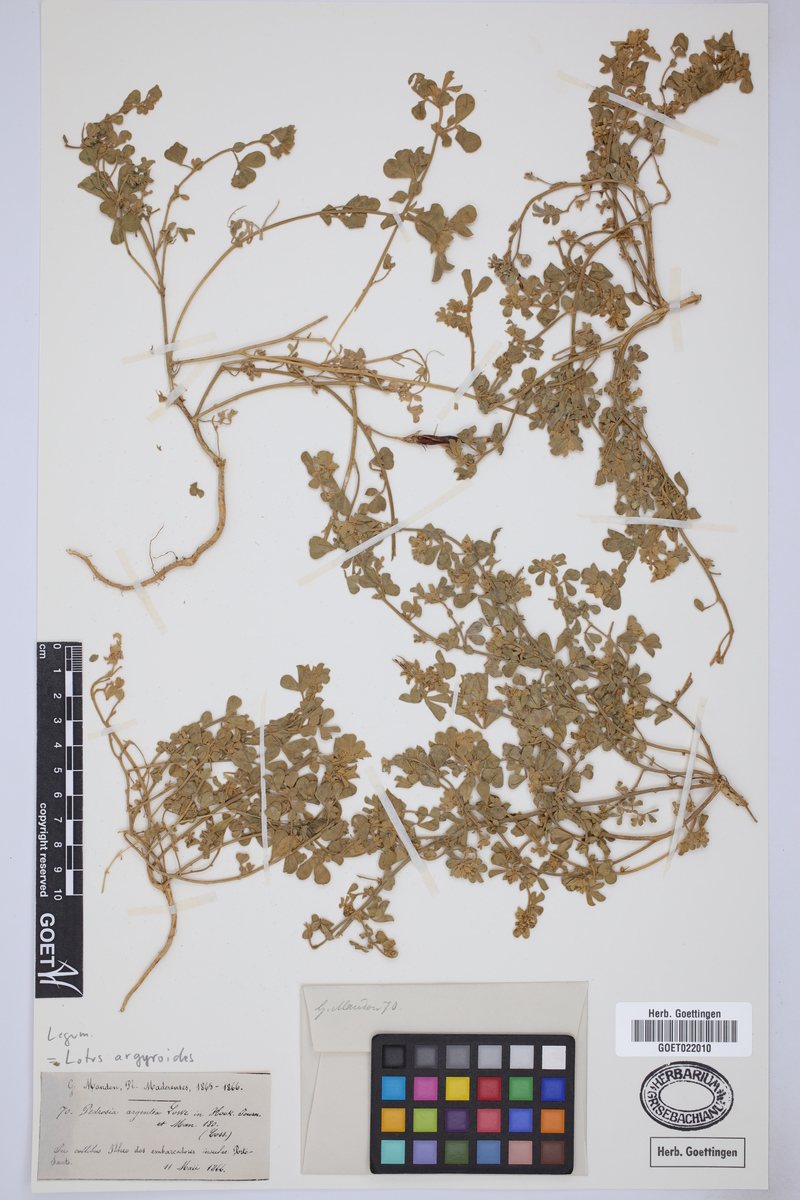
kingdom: Plantae
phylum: Tracheophyta
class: Magnoliopsida
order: Fabales
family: Fabaceae
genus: Lotus
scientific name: Lotus argyrodes
